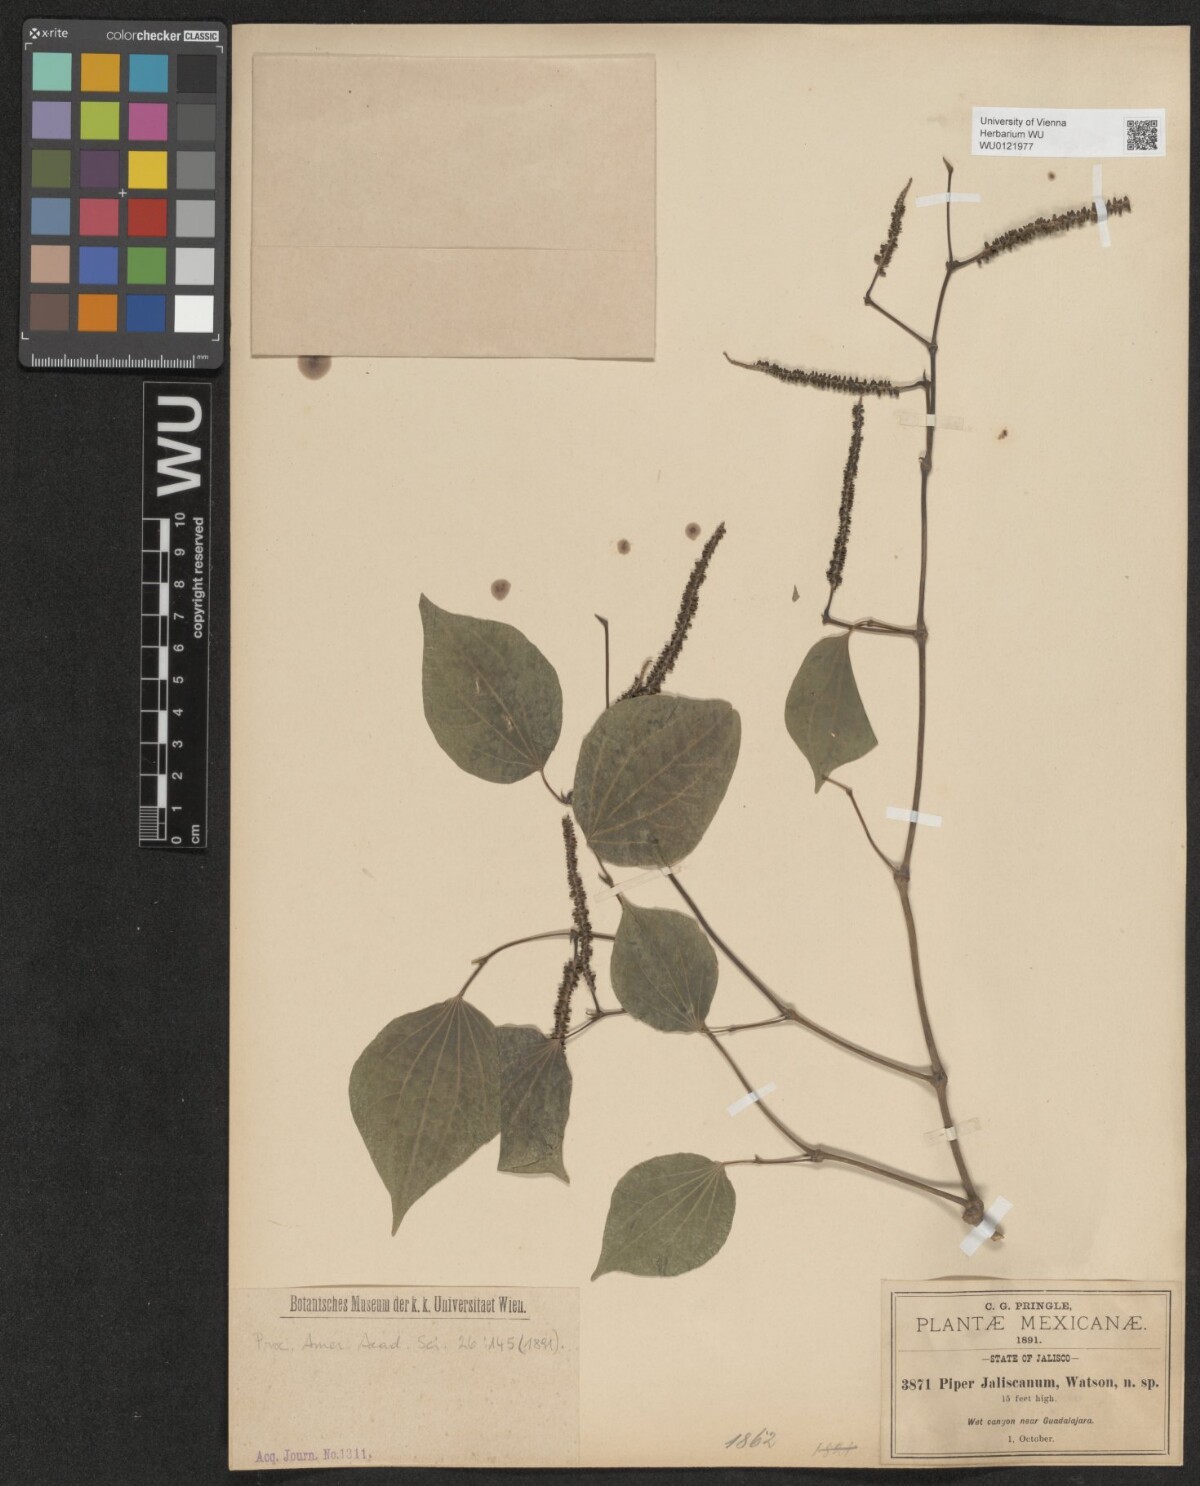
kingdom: Plantae
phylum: Tracheophyta
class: Magnoliopsida
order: Piperales
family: Piperaceae
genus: Piper
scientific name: Piper jaliscanum
